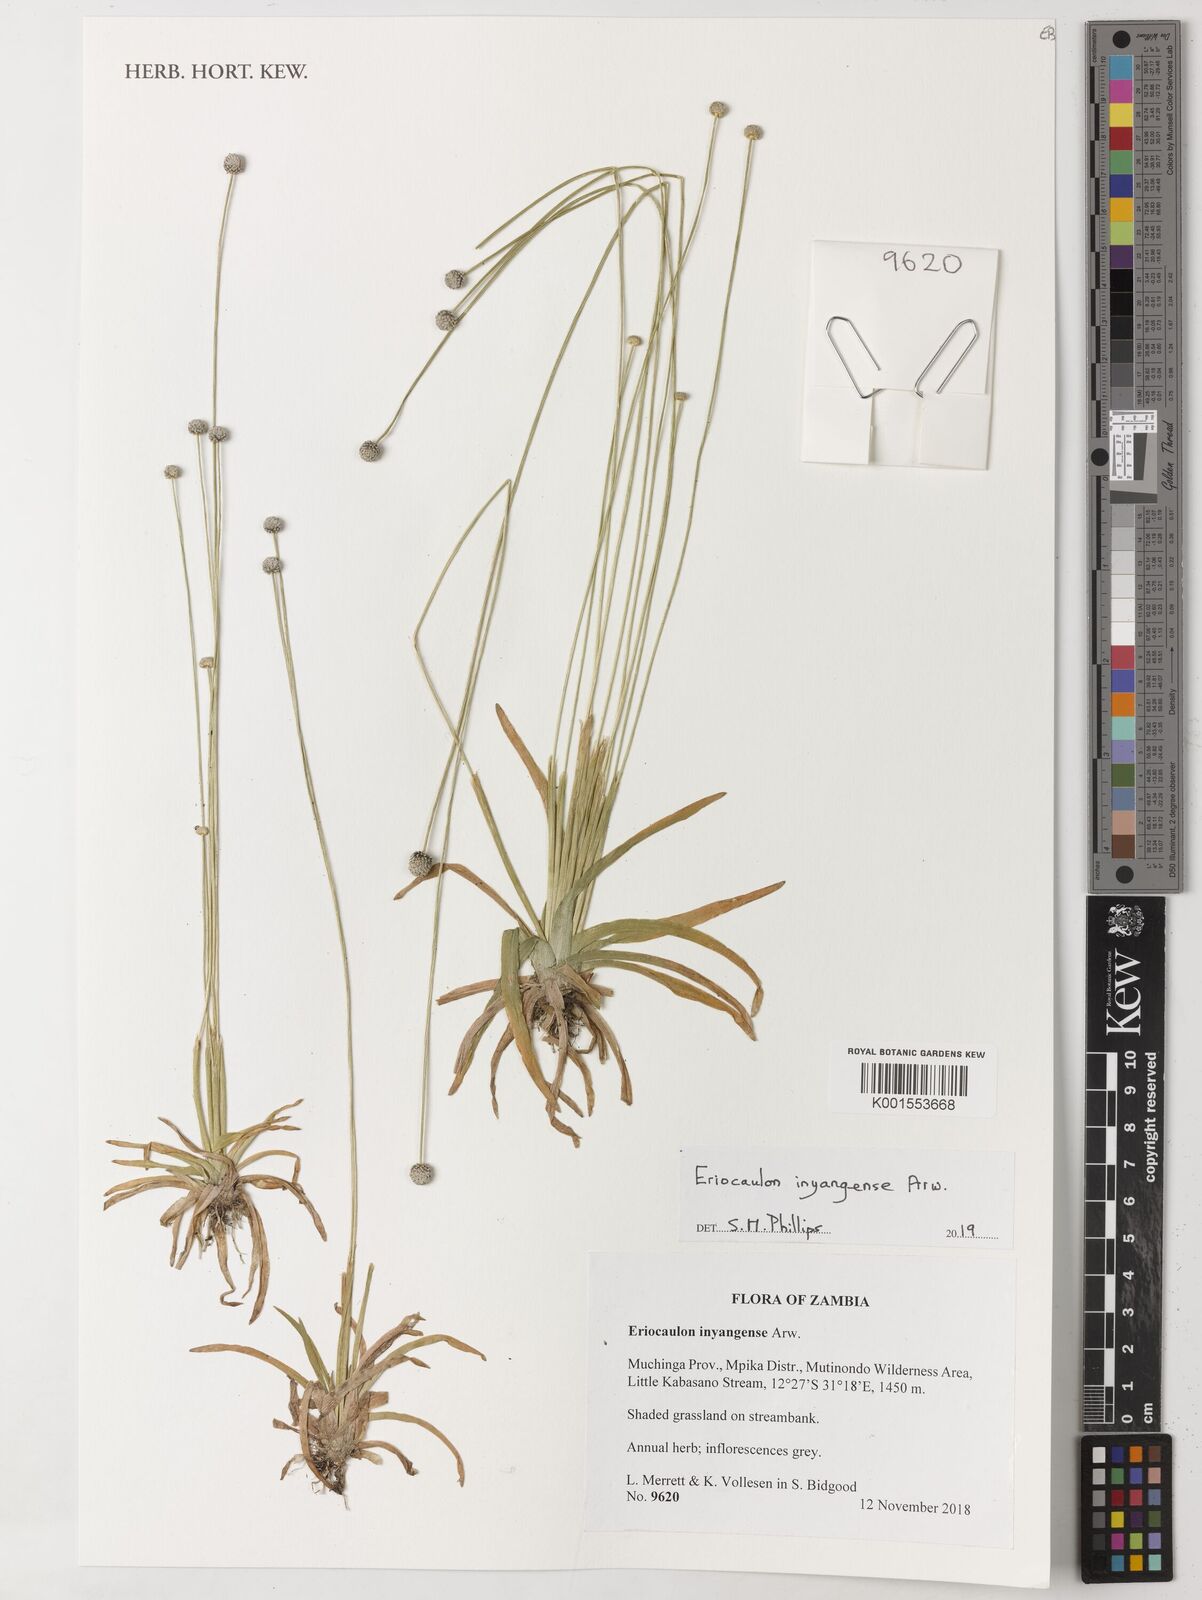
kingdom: Plantae
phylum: Tracheophyta
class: Liliopsida
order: Poales
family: Eriocaulaceae
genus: Eriocaulon
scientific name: Eriocaulon inyangense
